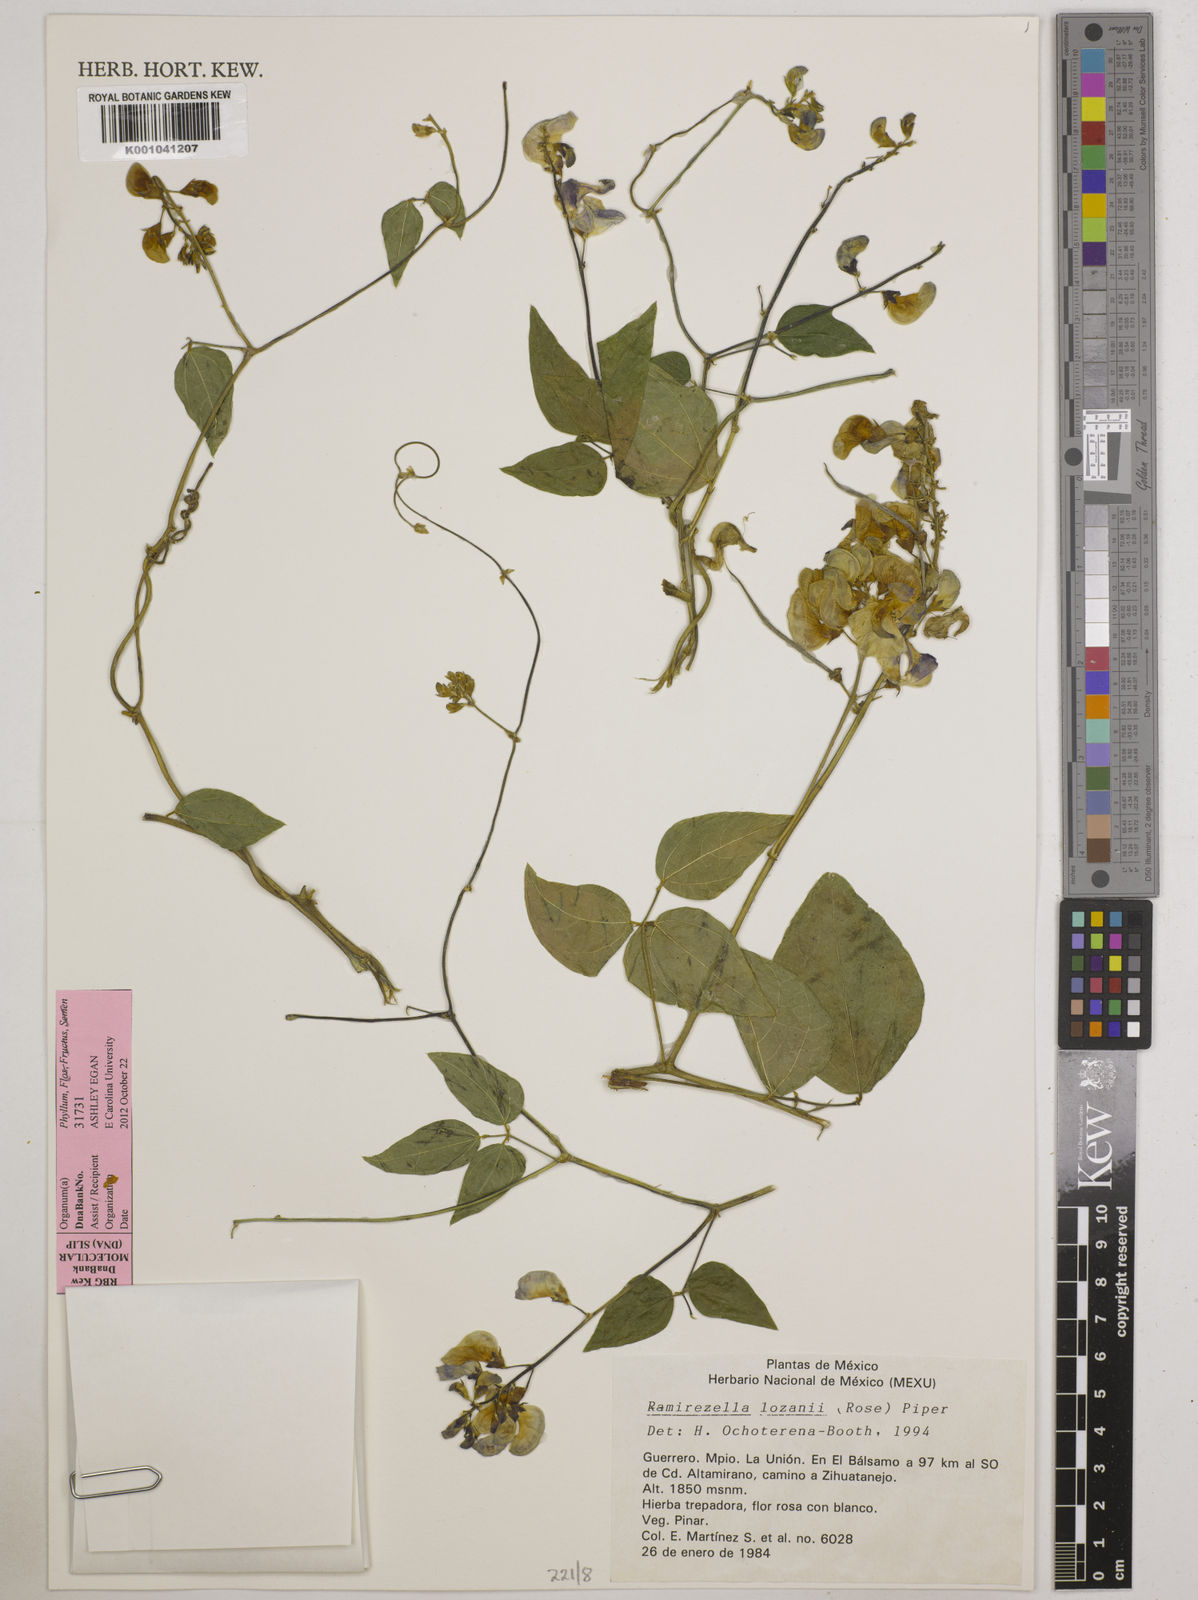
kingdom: Plantae
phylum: Tracheophyta
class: Magnoliopsida
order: Fabales
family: Fabaceae
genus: Ramirezella
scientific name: Ramirezella lozanii
